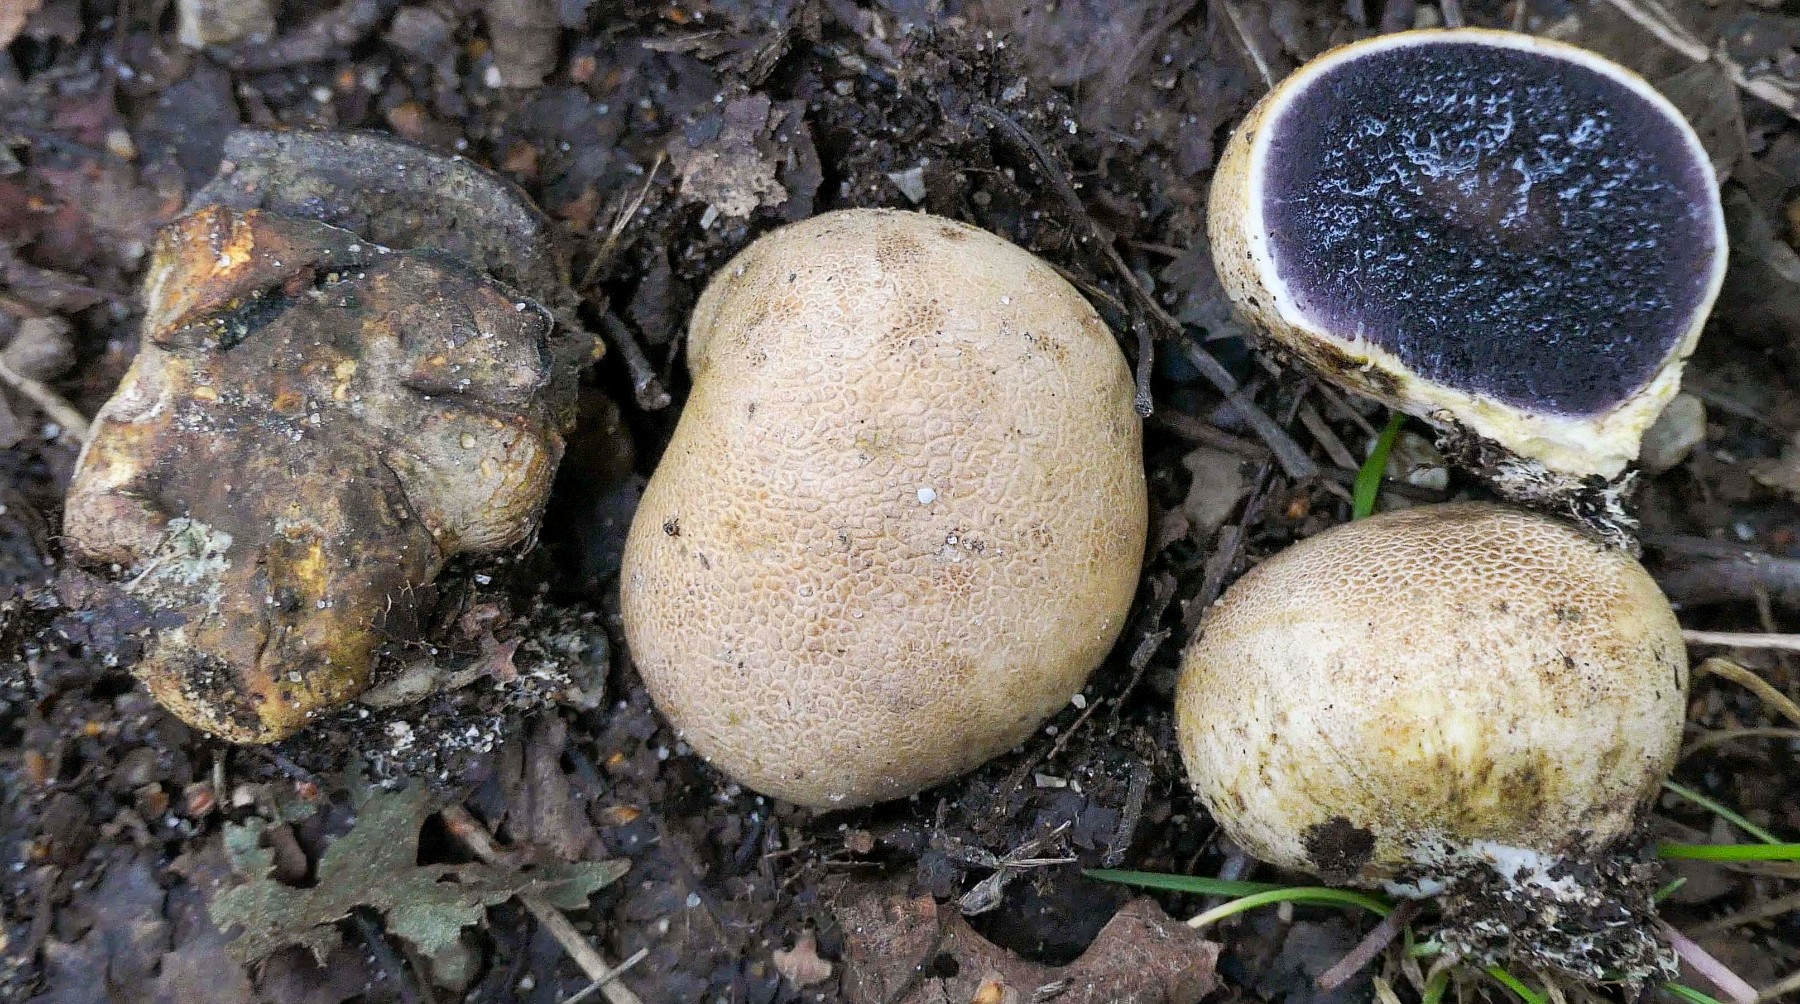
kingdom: Fungi
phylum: Basidiomycota
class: Agaricomycetes
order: Boletales
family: Sclerodermataceae
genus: Scleroderma
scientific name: Scleroderma bovista
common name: bovist-bruskbold
